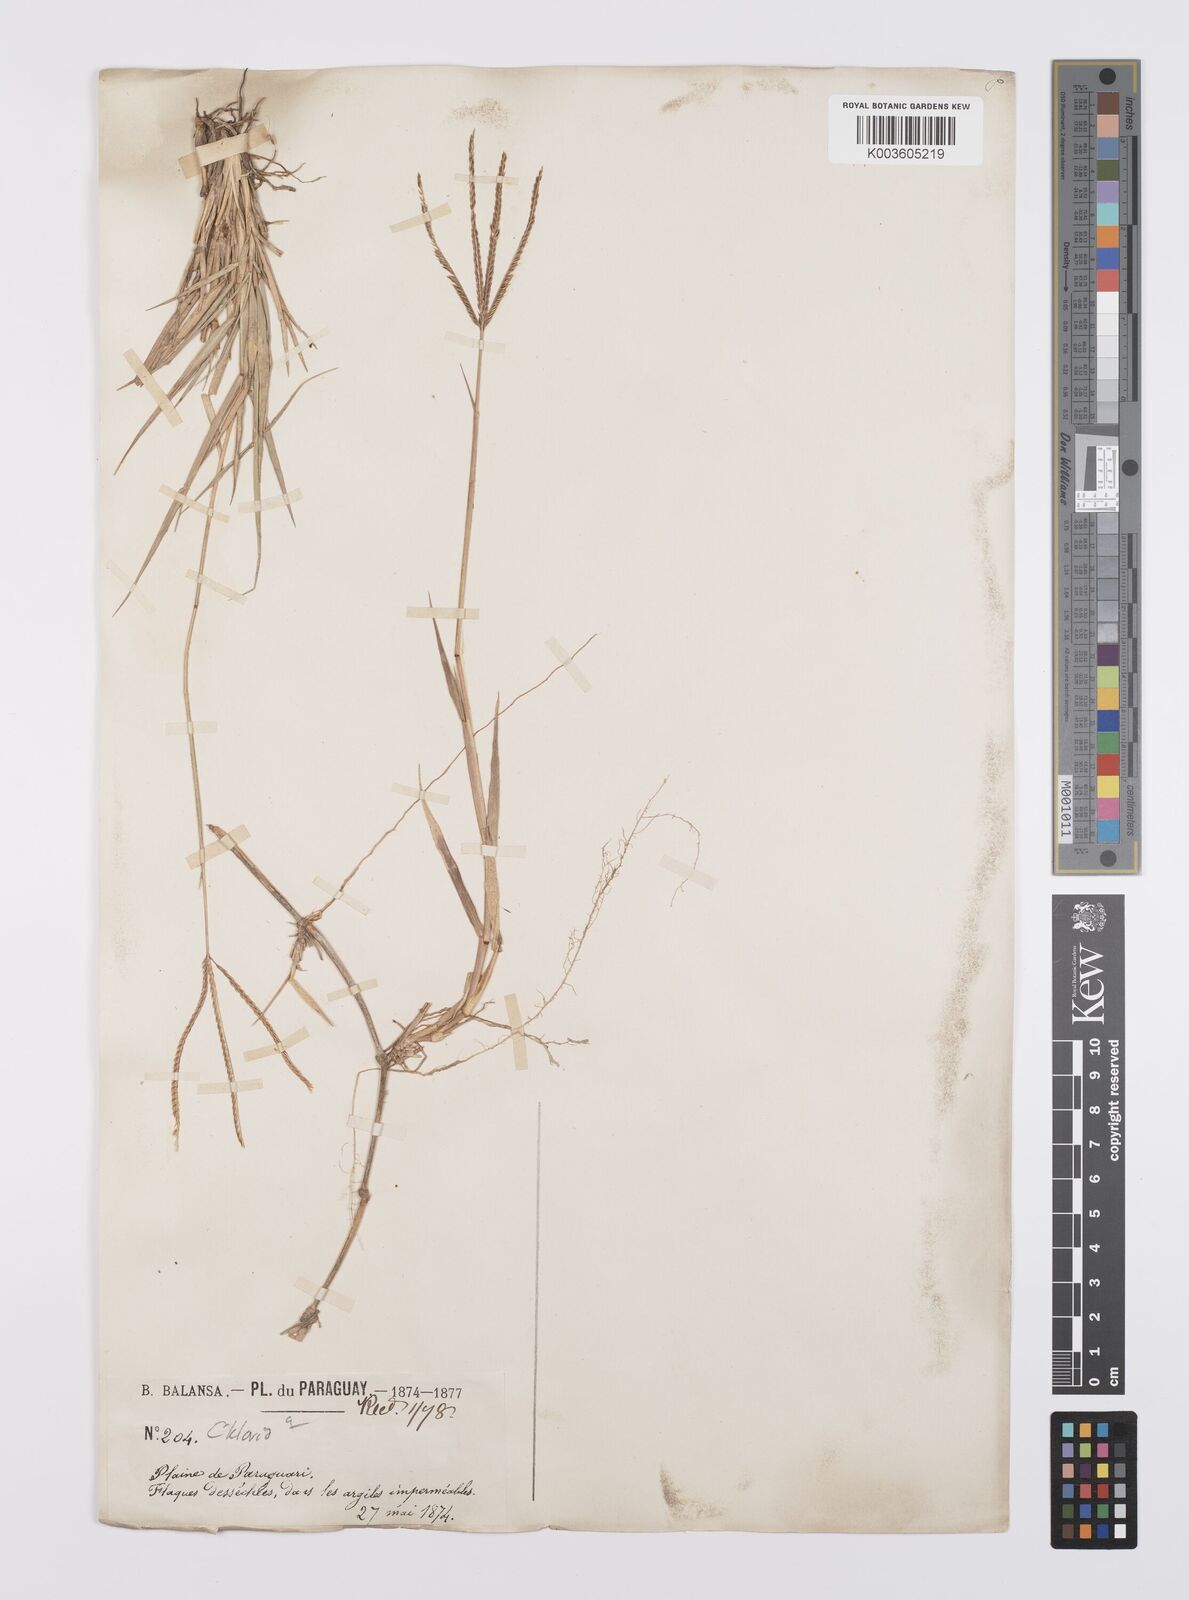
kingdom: Plantae
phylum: Tracheophyta
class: Liliopsida
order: Poales
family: Poaceae
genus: Cynodon
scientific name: Cynodon dactylon
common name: Bermuda grass
